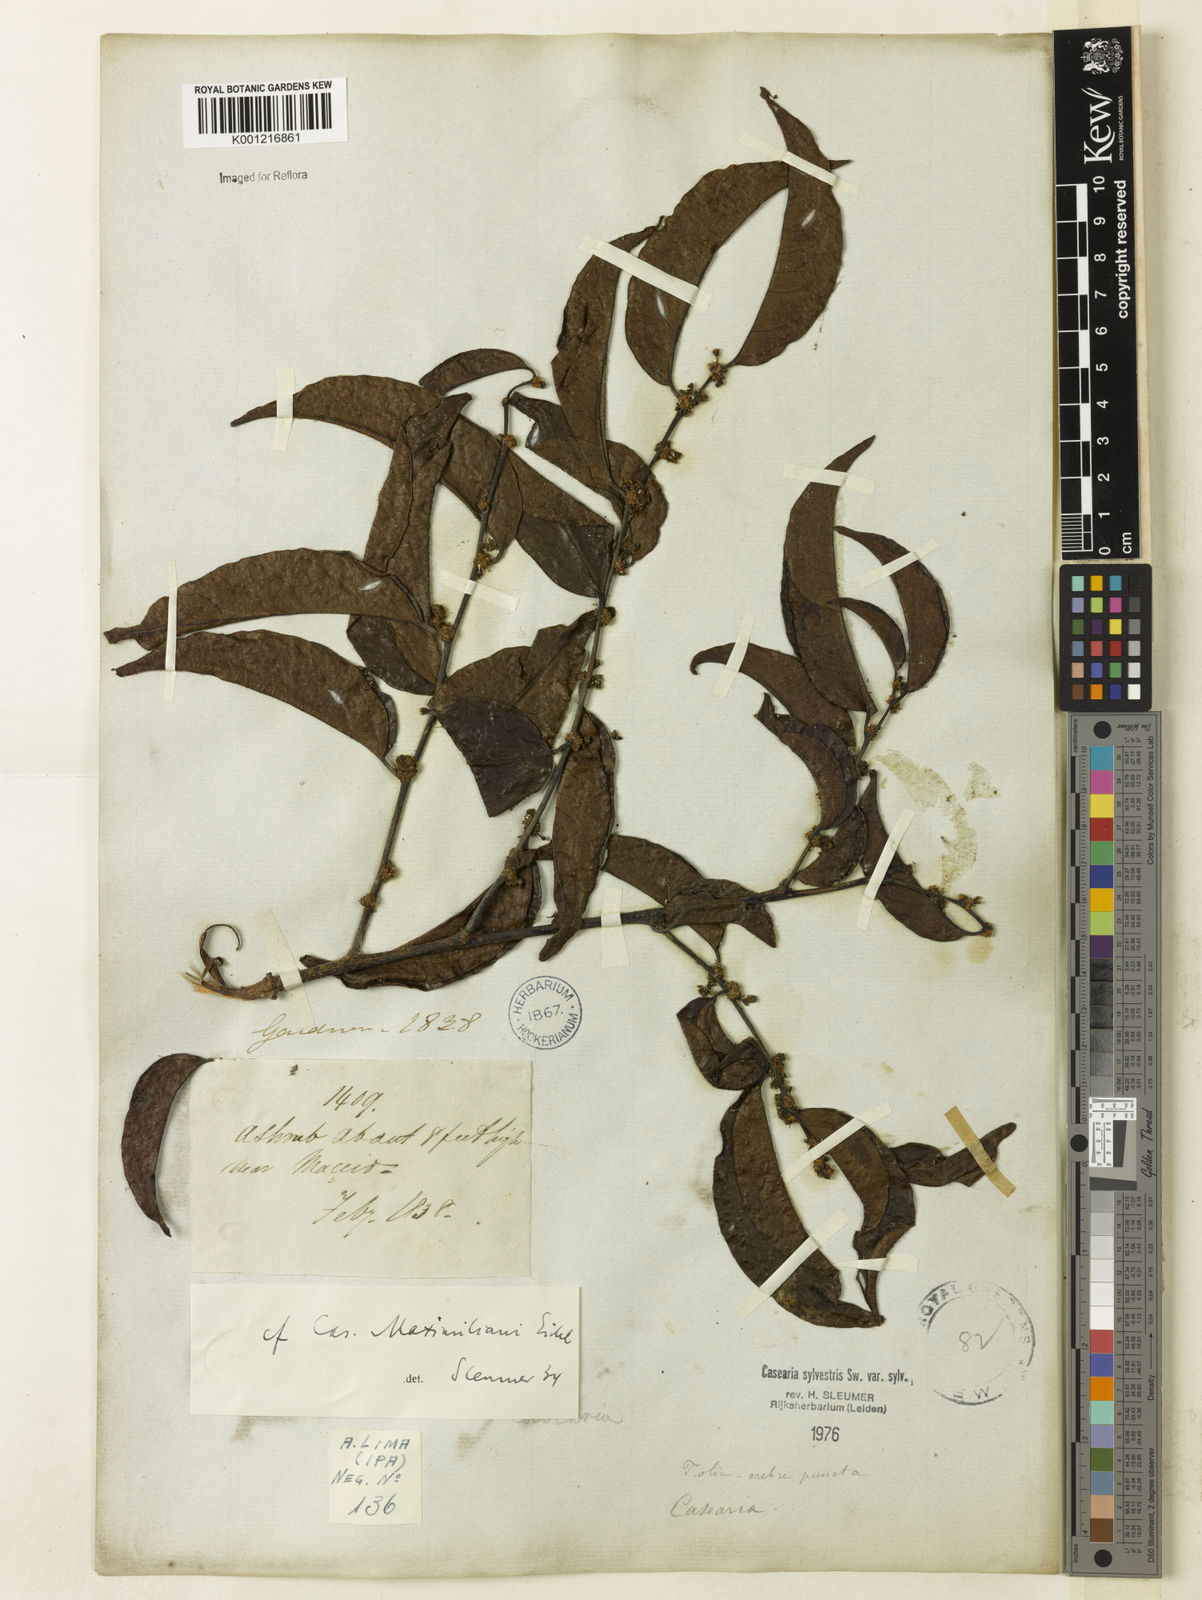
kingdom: Plantae
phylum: Tracheophyta
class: Magnoliopsida
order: Malpighiales
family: Salicaceae
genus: Casearia
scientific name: Casearia sylvestris
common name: Wild sage
